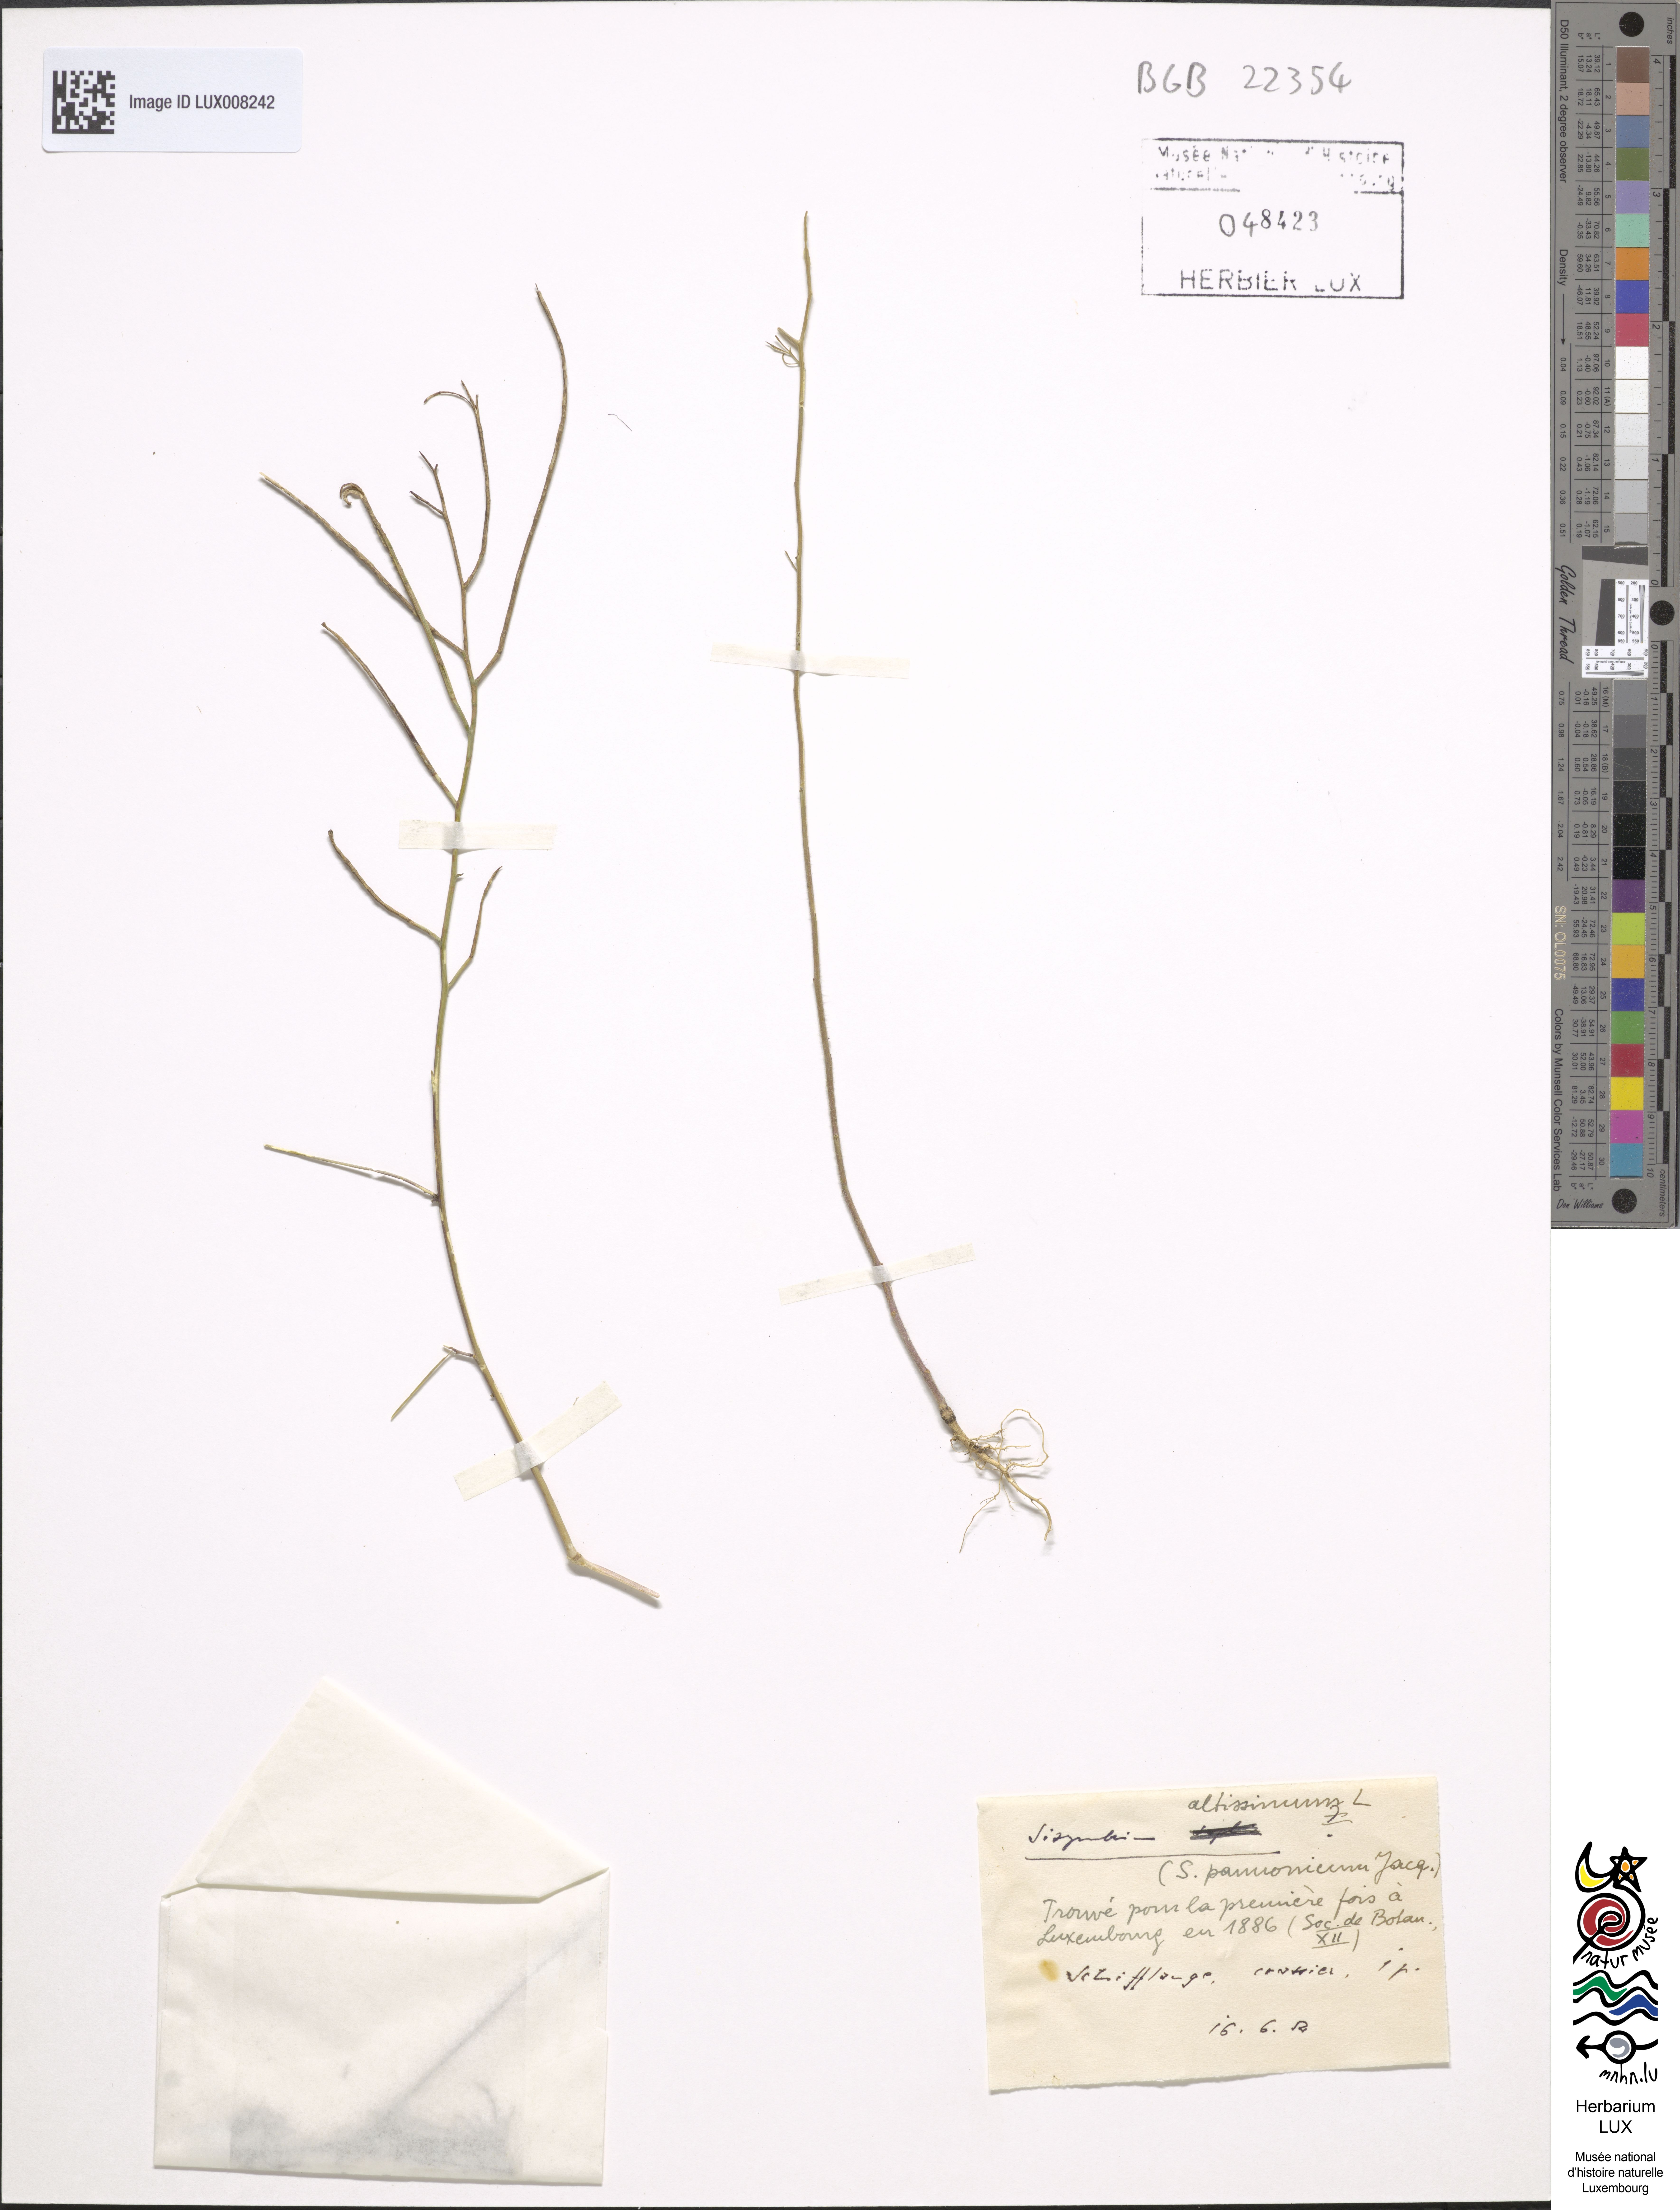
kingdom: Plantae
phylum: Tracheophyta
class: Magnoliopsida
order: Brassicales
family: Brassicaceae
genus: Sisymbrium
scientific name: Sisymbrium altissimum
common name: Tall rocket
